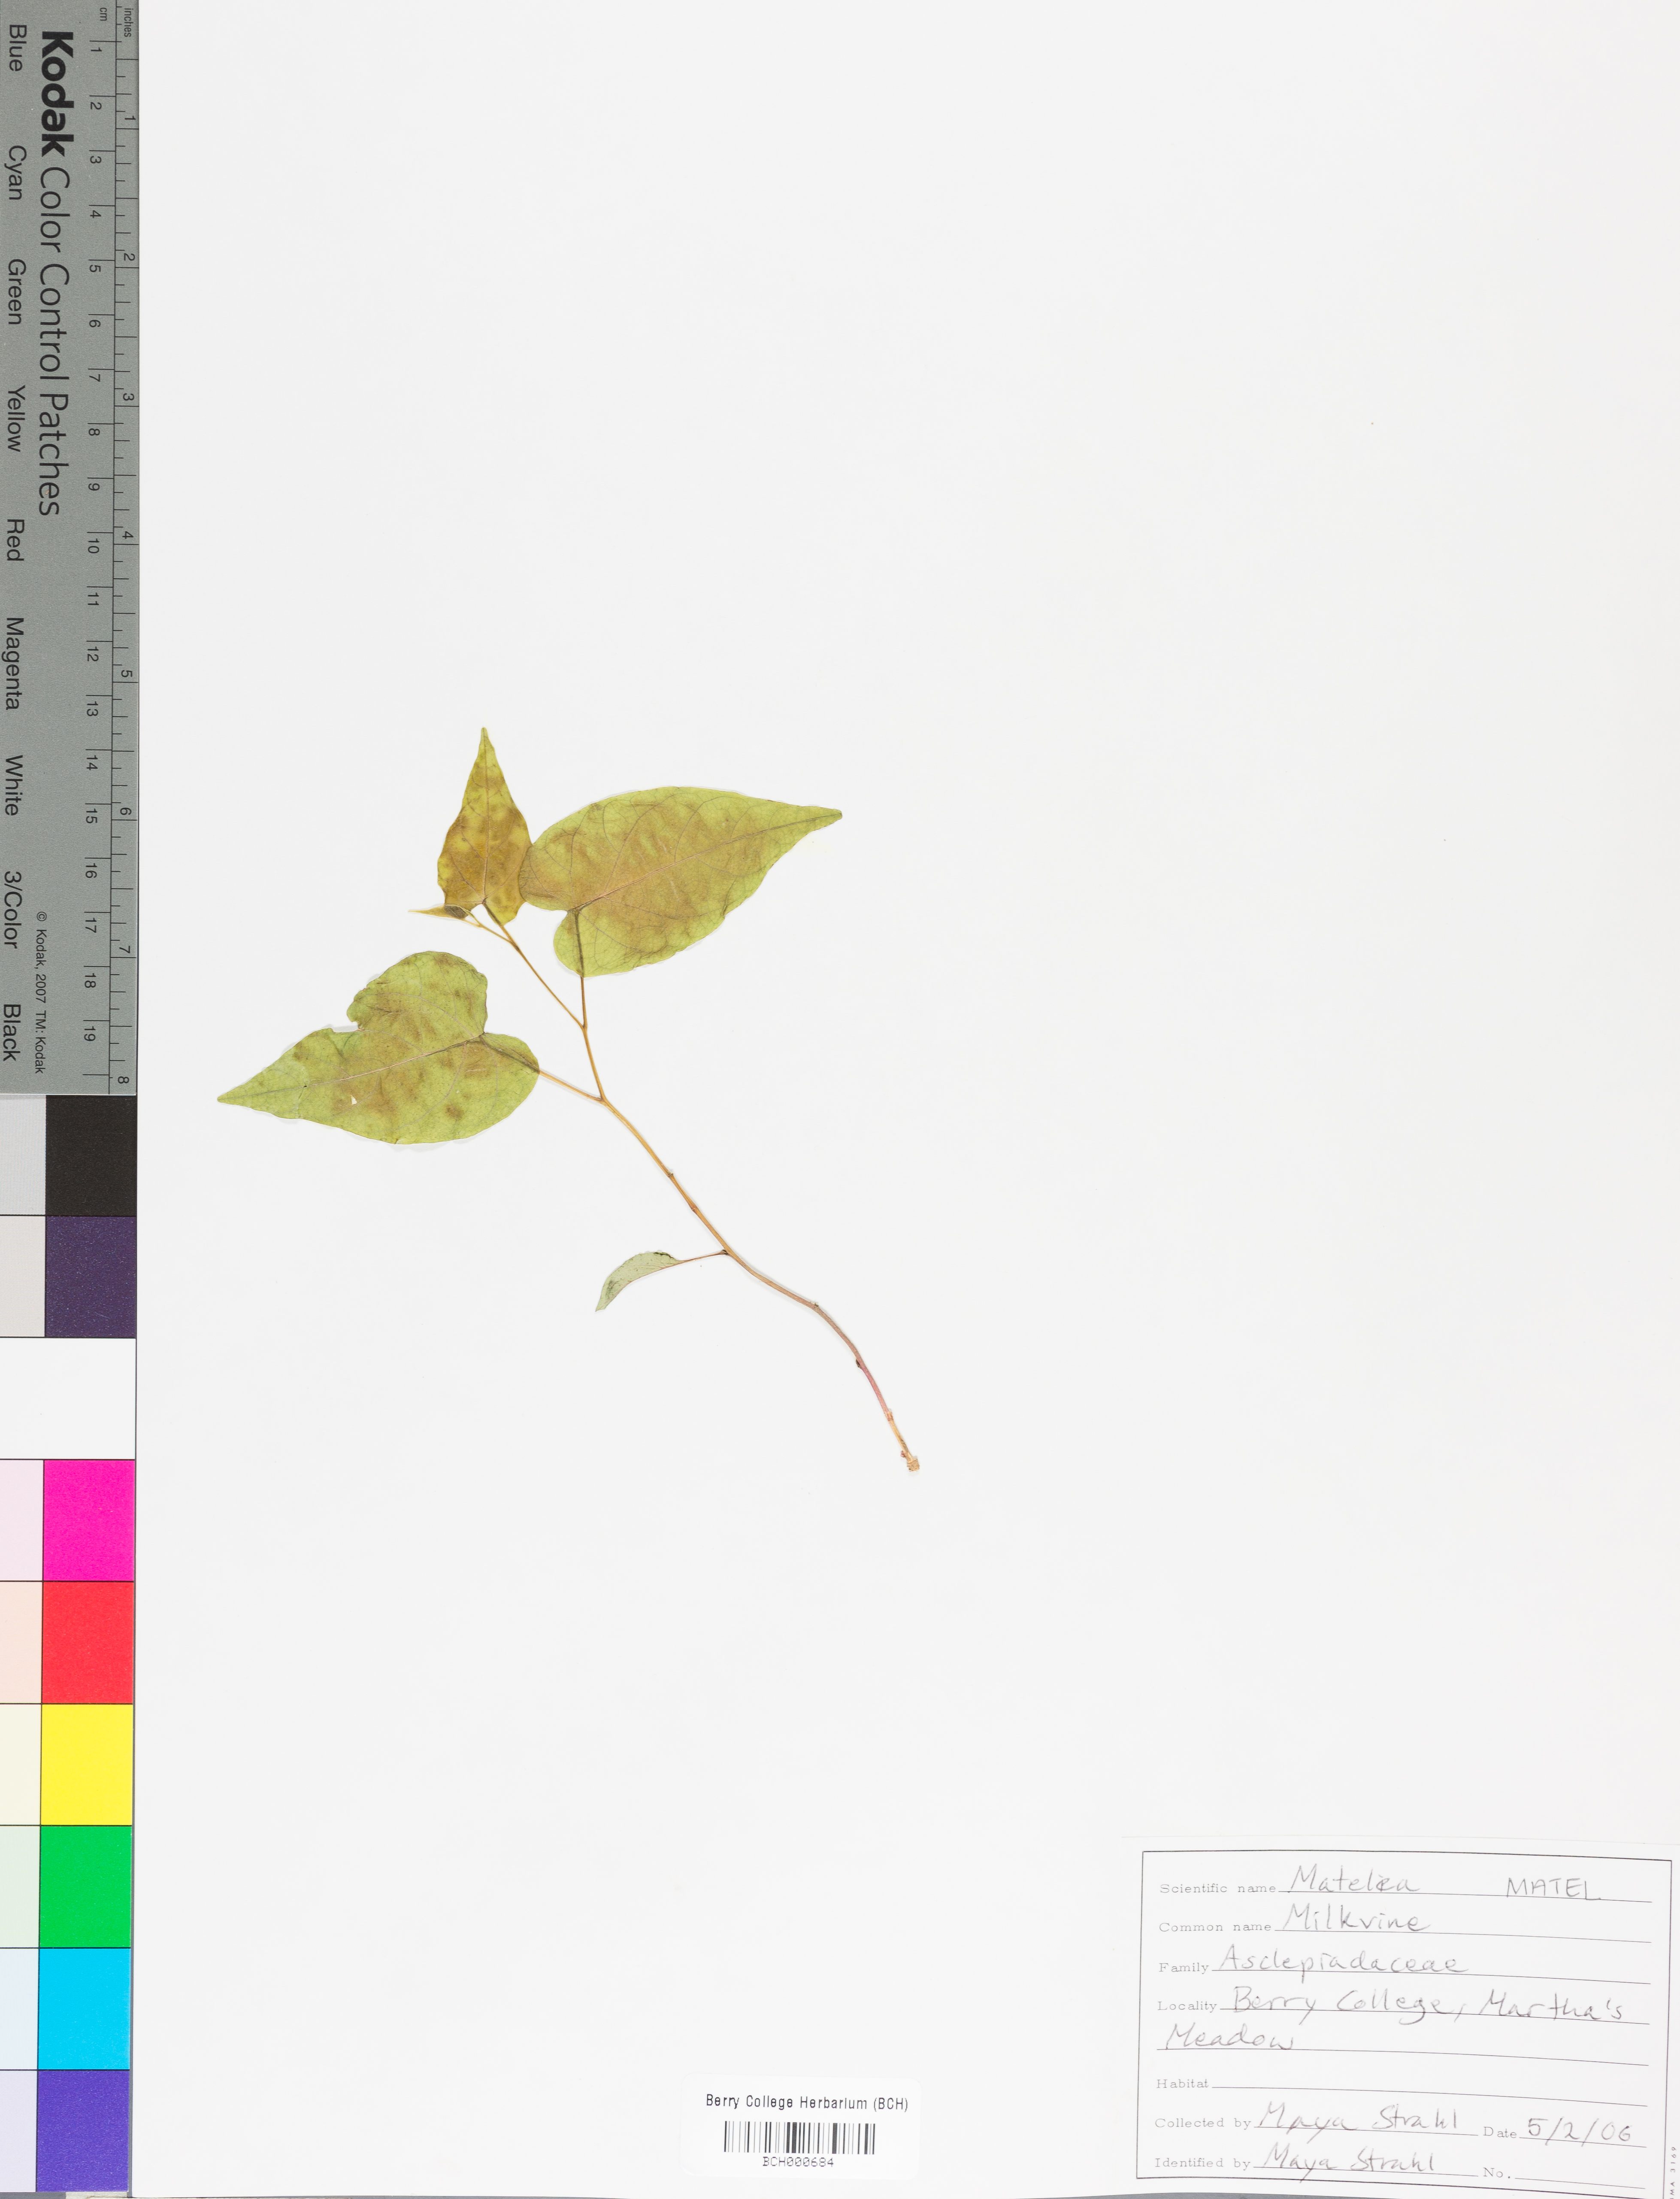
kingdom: Plantae
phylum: Tracheophyta
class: Magnoliopsida
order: Gentianales
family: Apocynaceae
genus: Matelea
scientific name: Matelea
